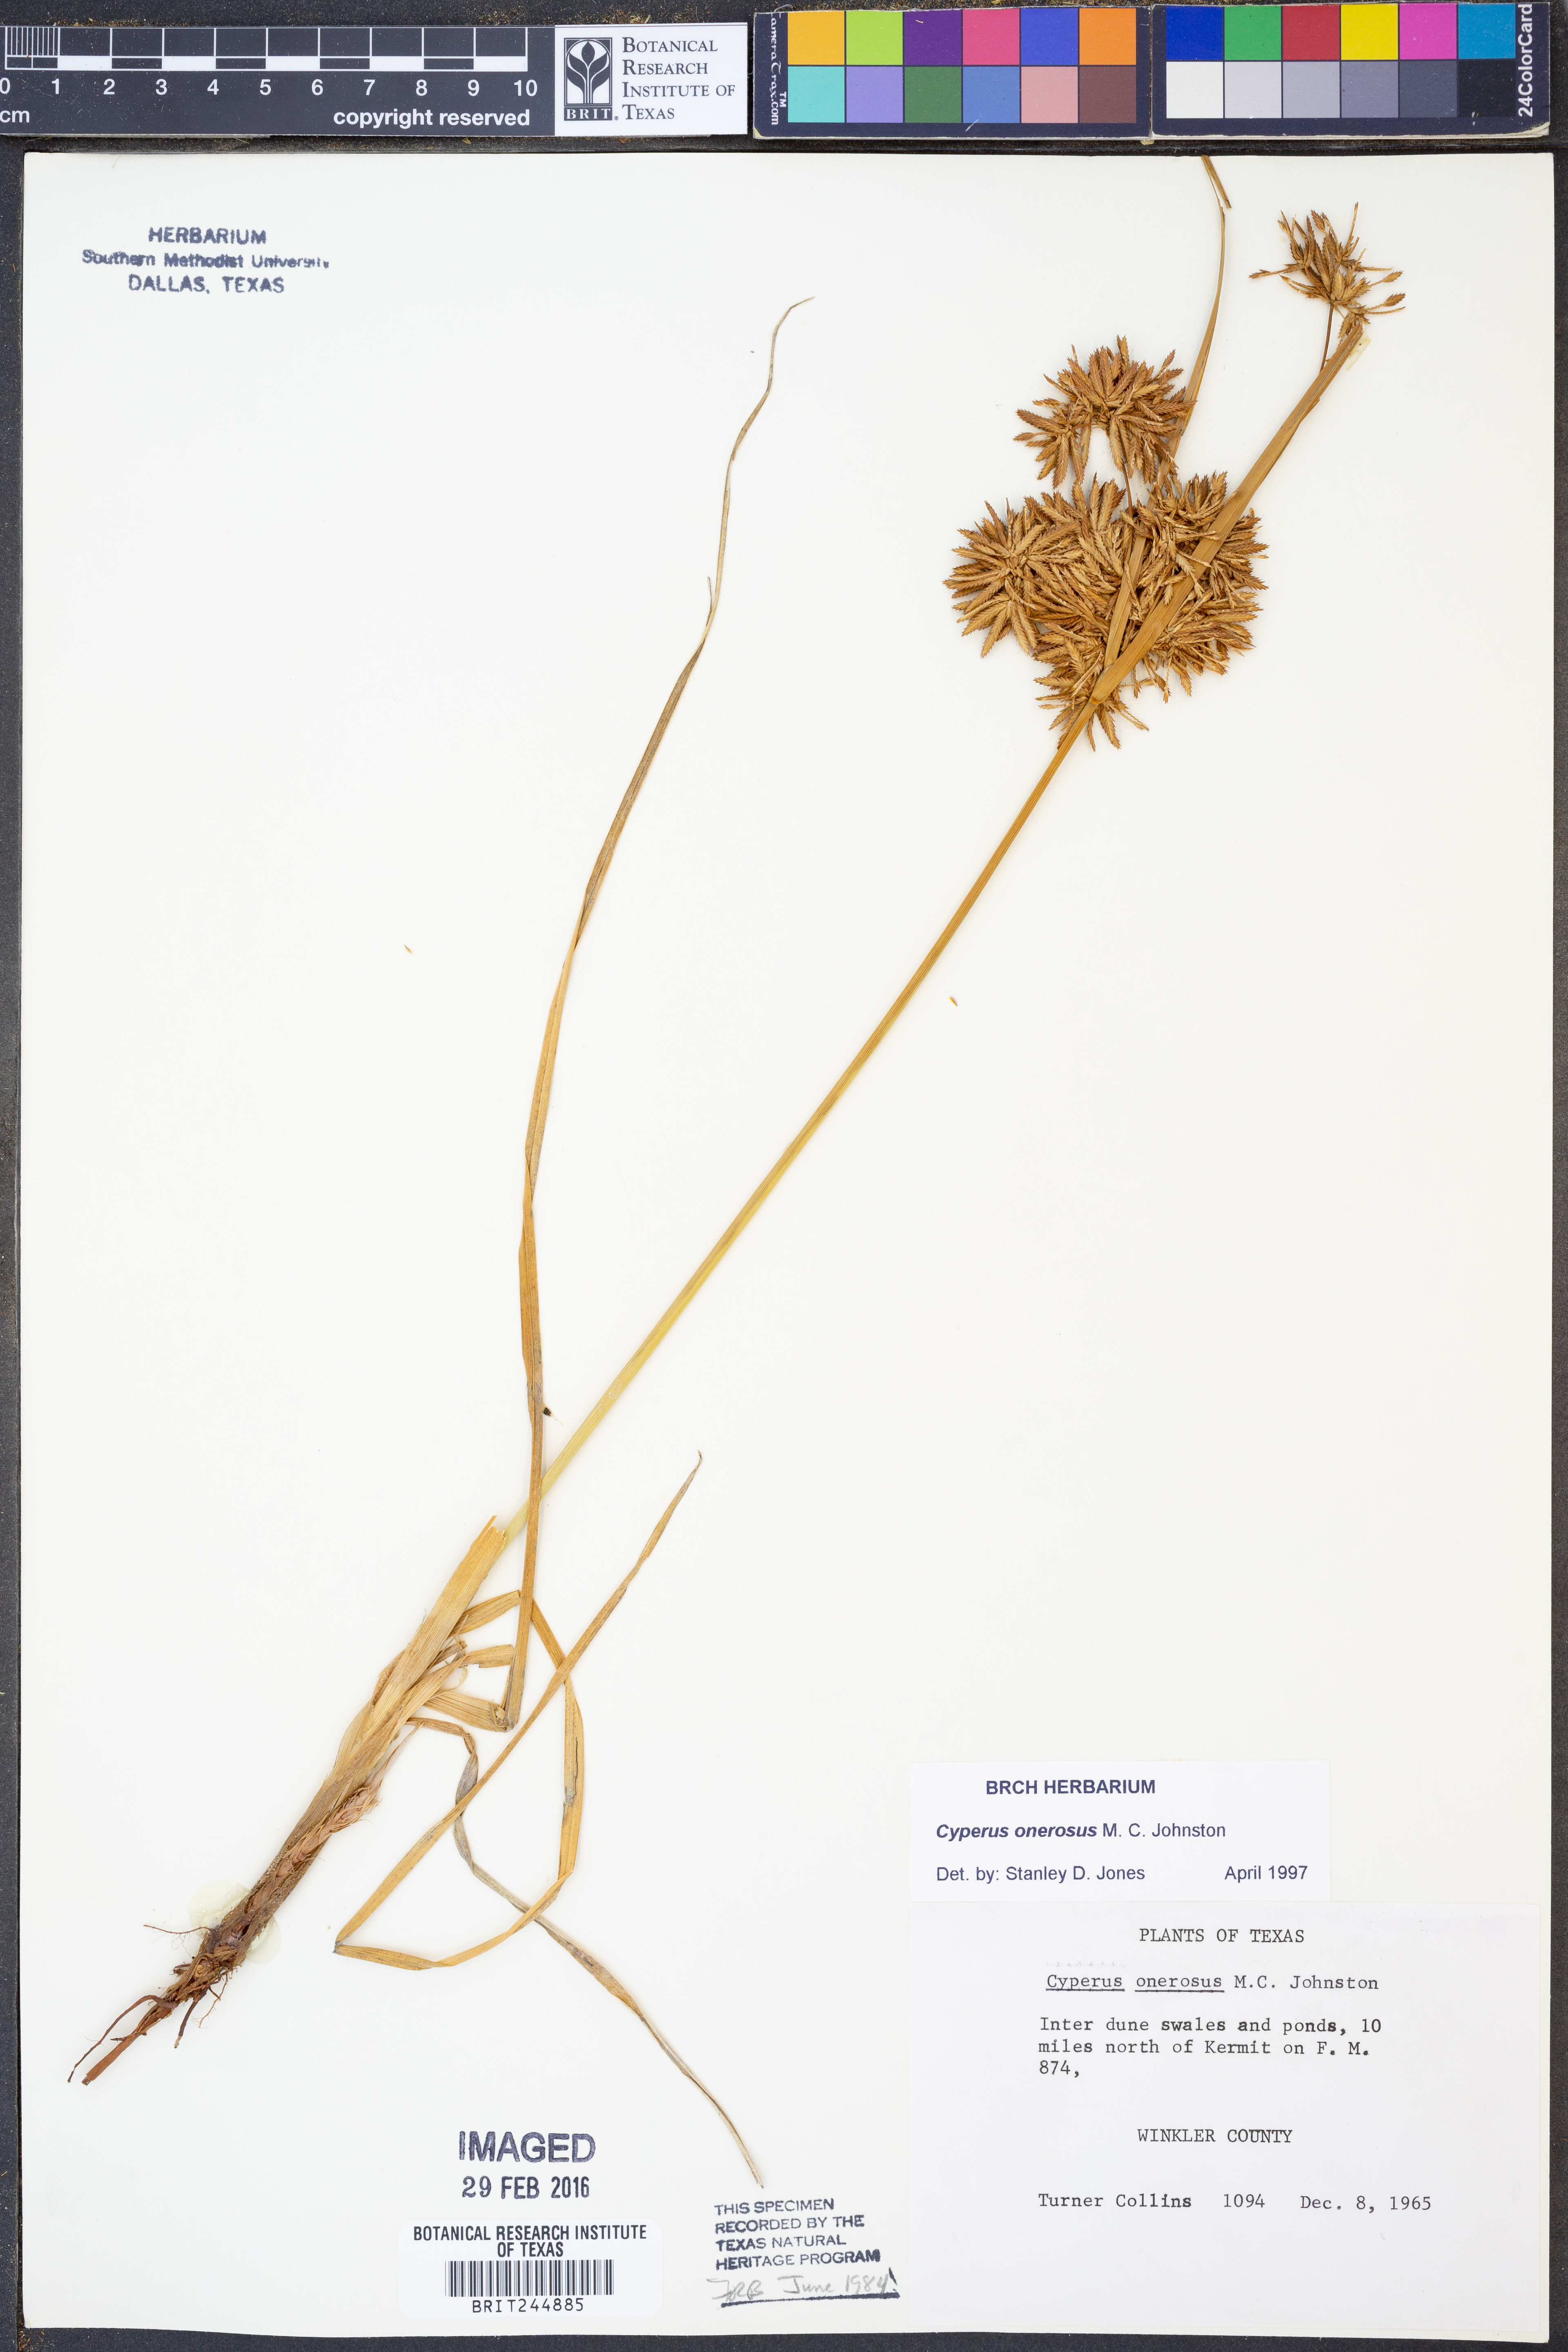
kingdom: Plantae
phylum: Tracheophyta
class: Liliopsida
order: Poales
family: Cyperaceae
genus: Cyperus
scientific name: Cyperus onerosus
